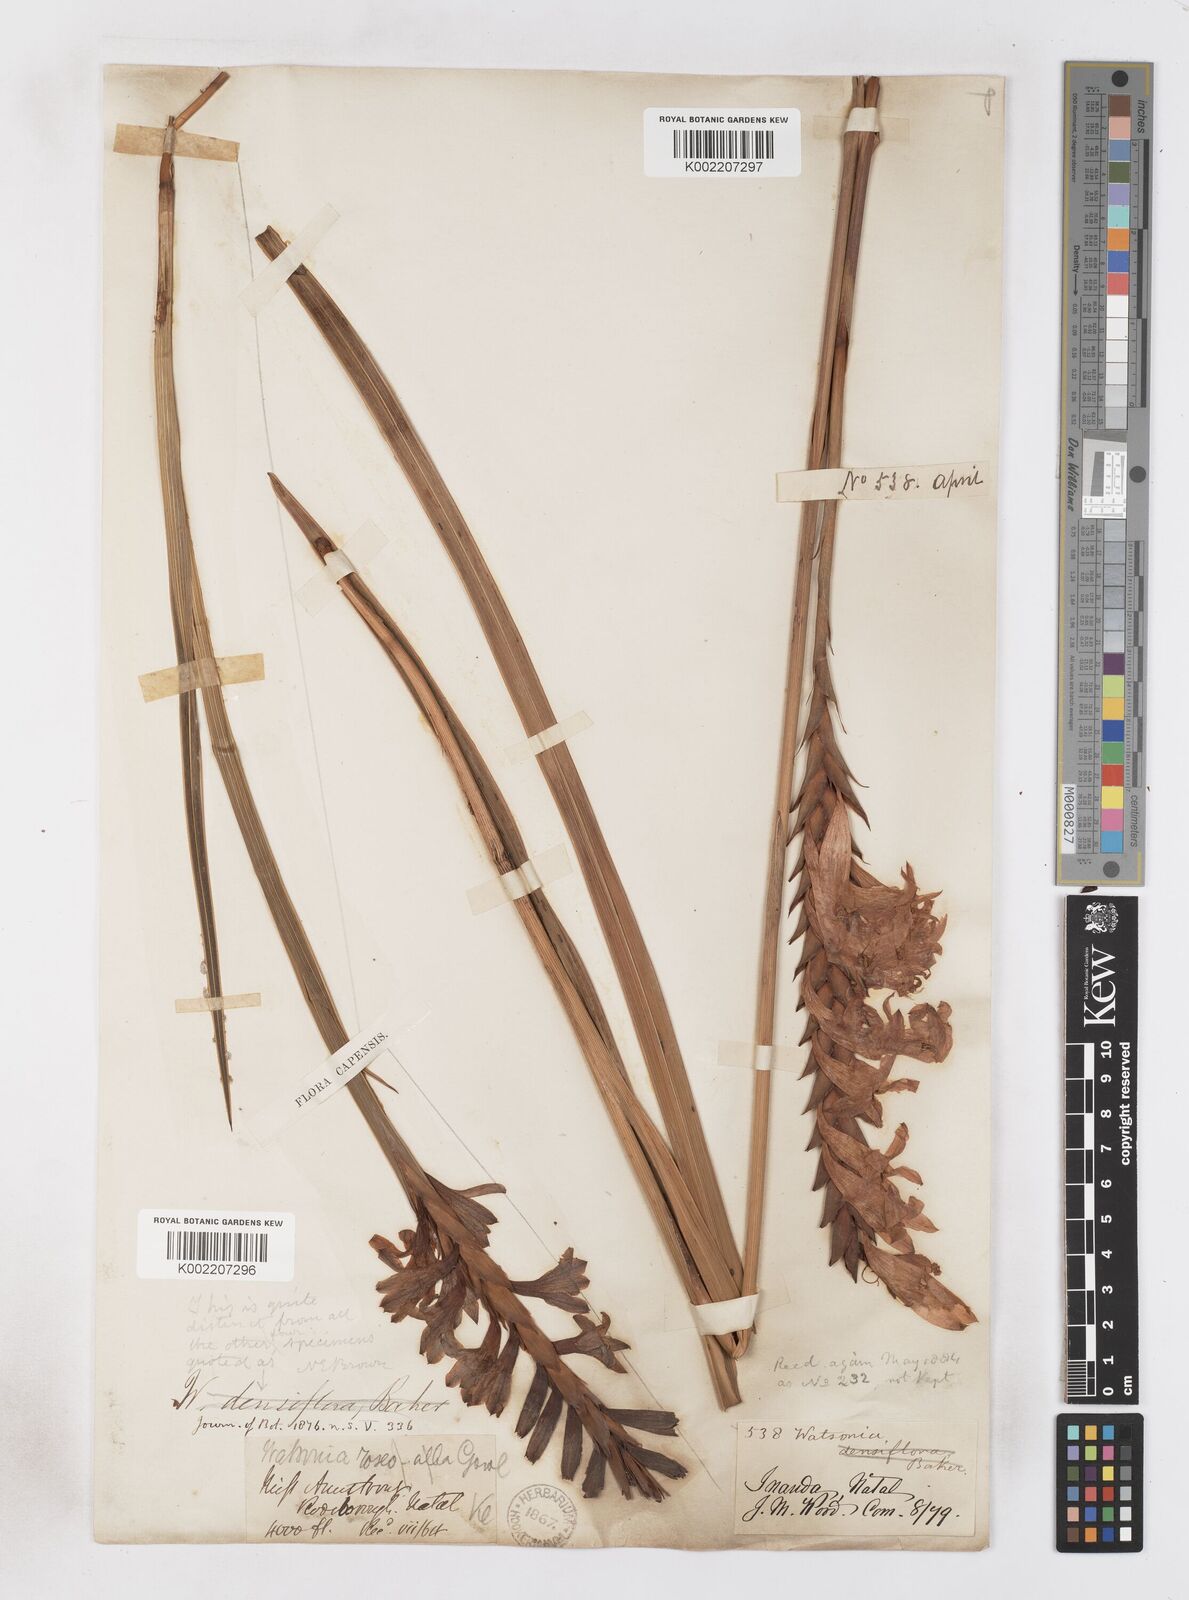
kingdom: Plantae
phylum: Tracheophyta
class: Liliopsida
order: Asparagales
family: Iridaceae
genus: Watsonia
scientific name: Watsonia densiflora
